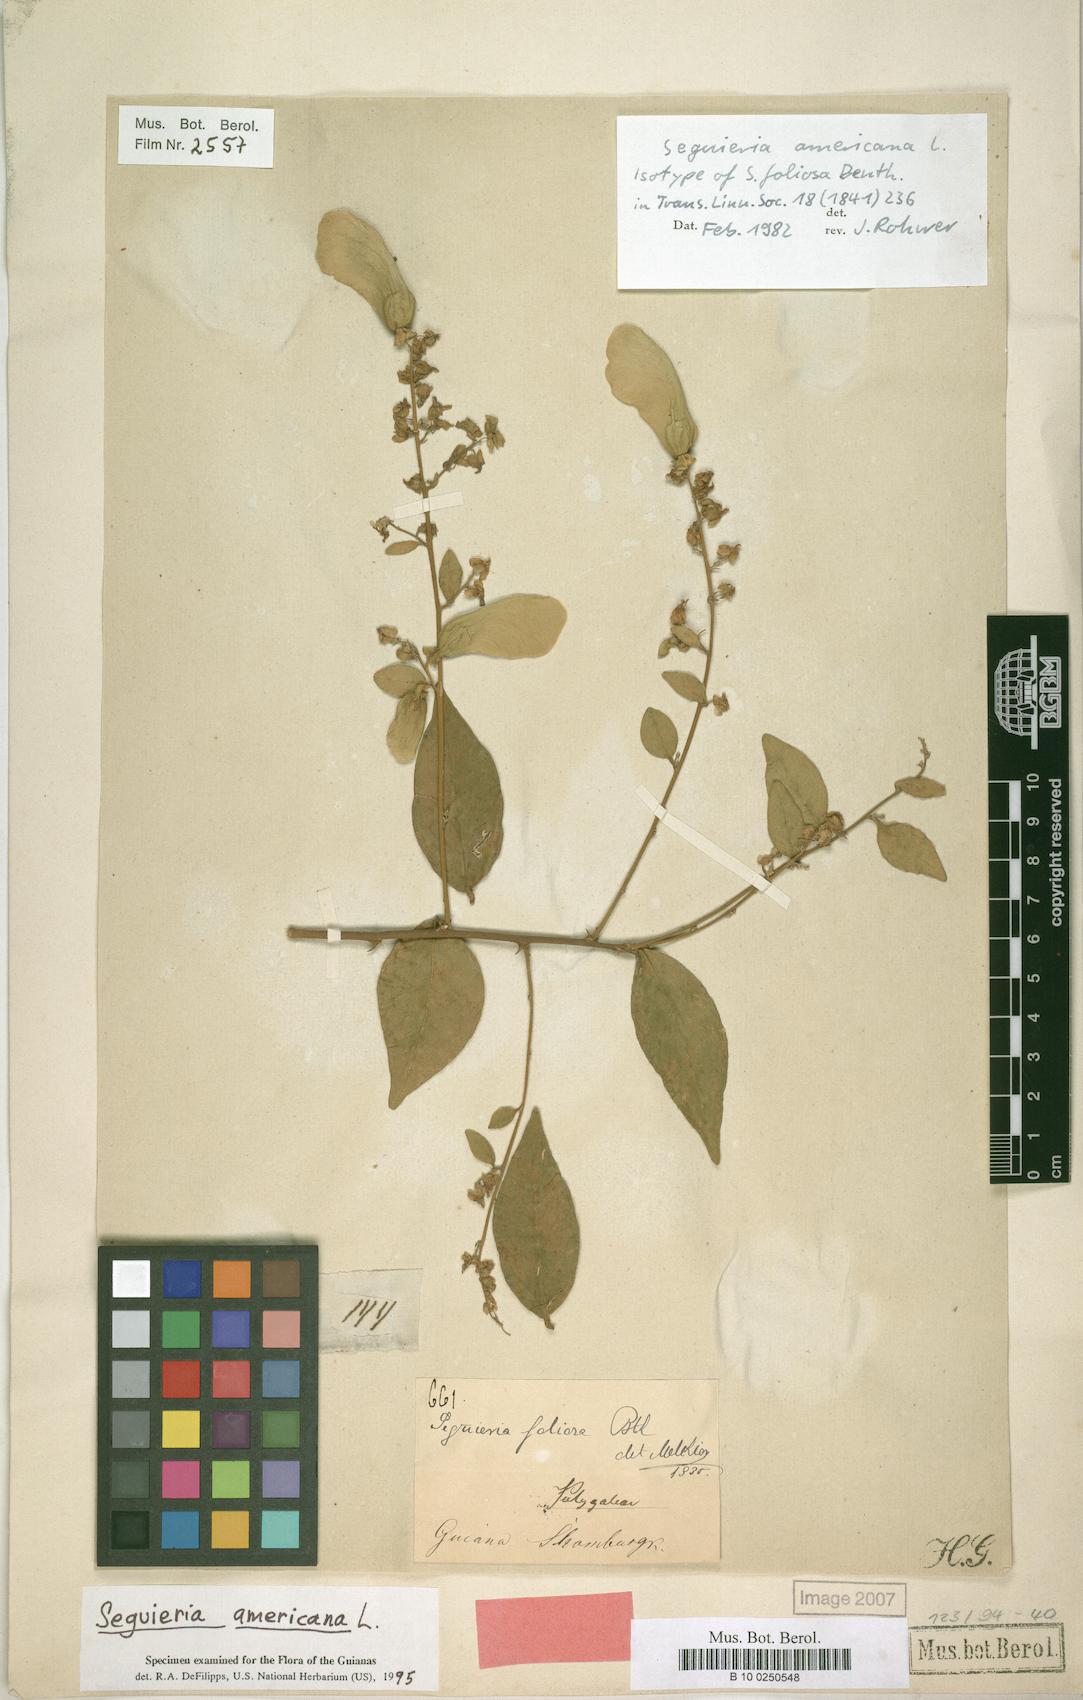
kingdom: Plantae
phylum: Tracheophyta
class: Magnoliopsida
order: Caryophyllales
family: Phytolaccaceae
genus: Seguieria
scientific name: Seguieria americana
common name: American seguieria
